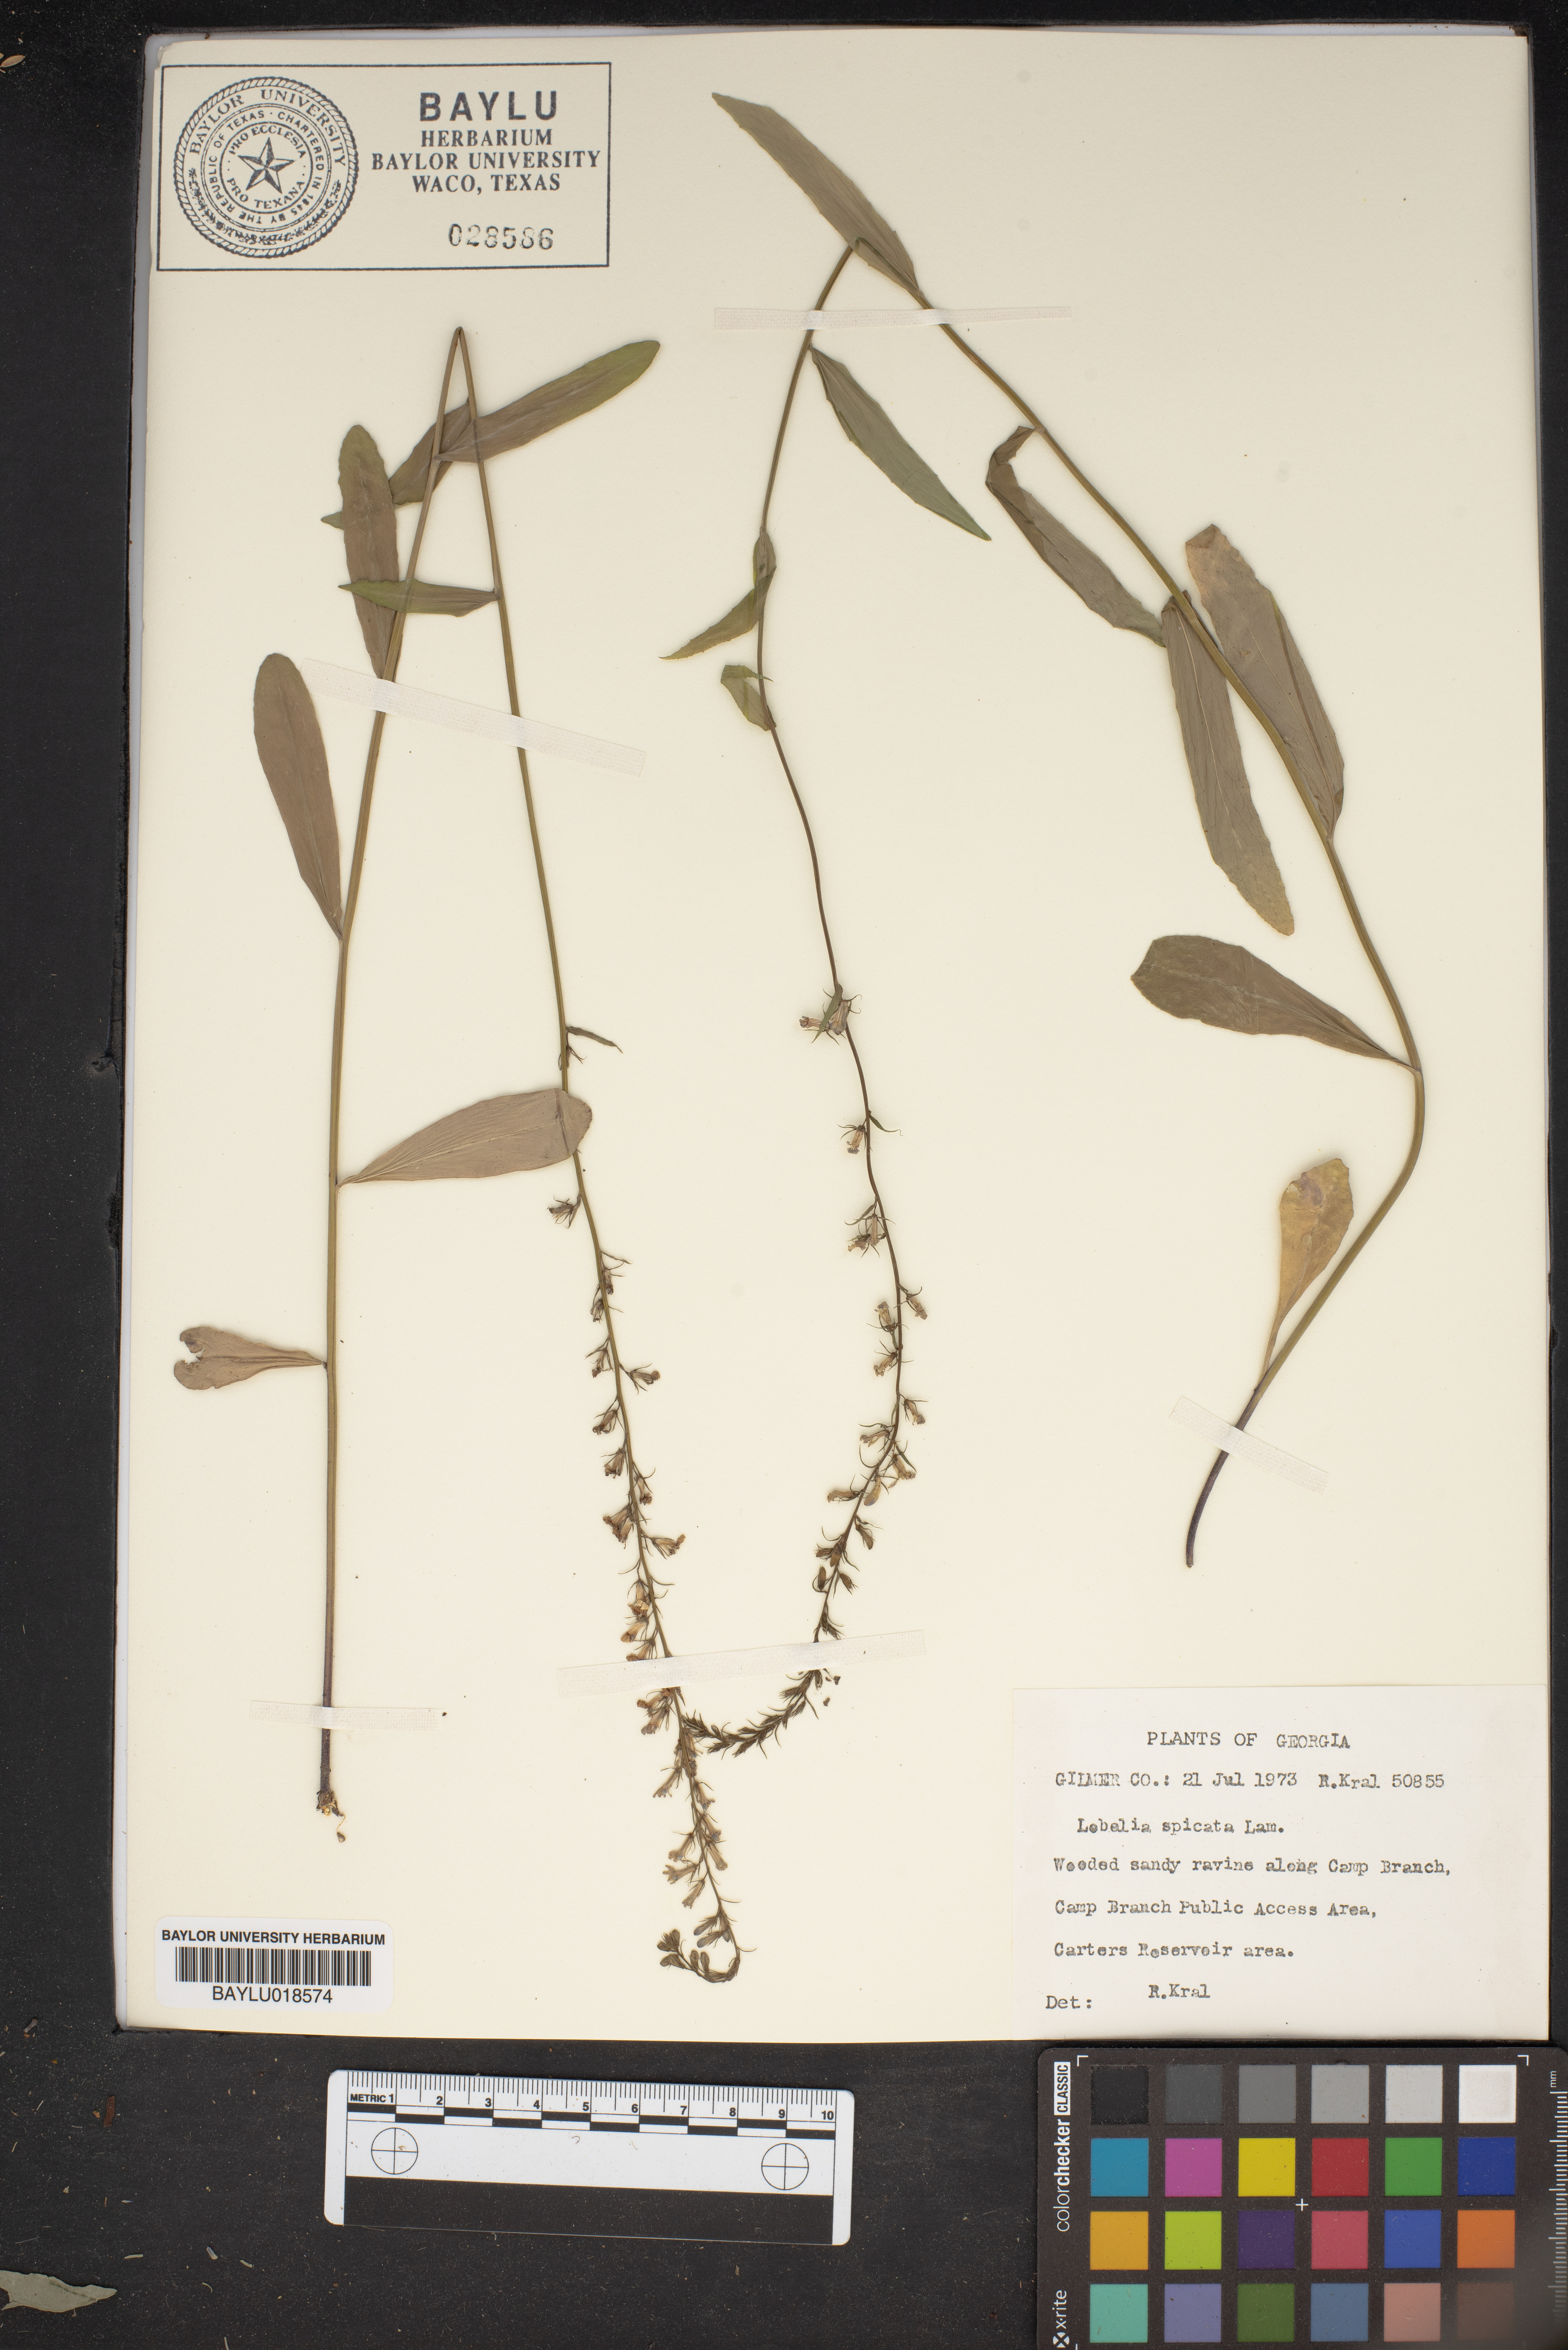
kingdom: Plantae
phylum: Tracheophyta
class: Magnoliopsida
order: Asterales
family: Campanulaceae
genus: Lobelia
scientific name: Lobelia spicata
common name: Pale-spike lobelia
